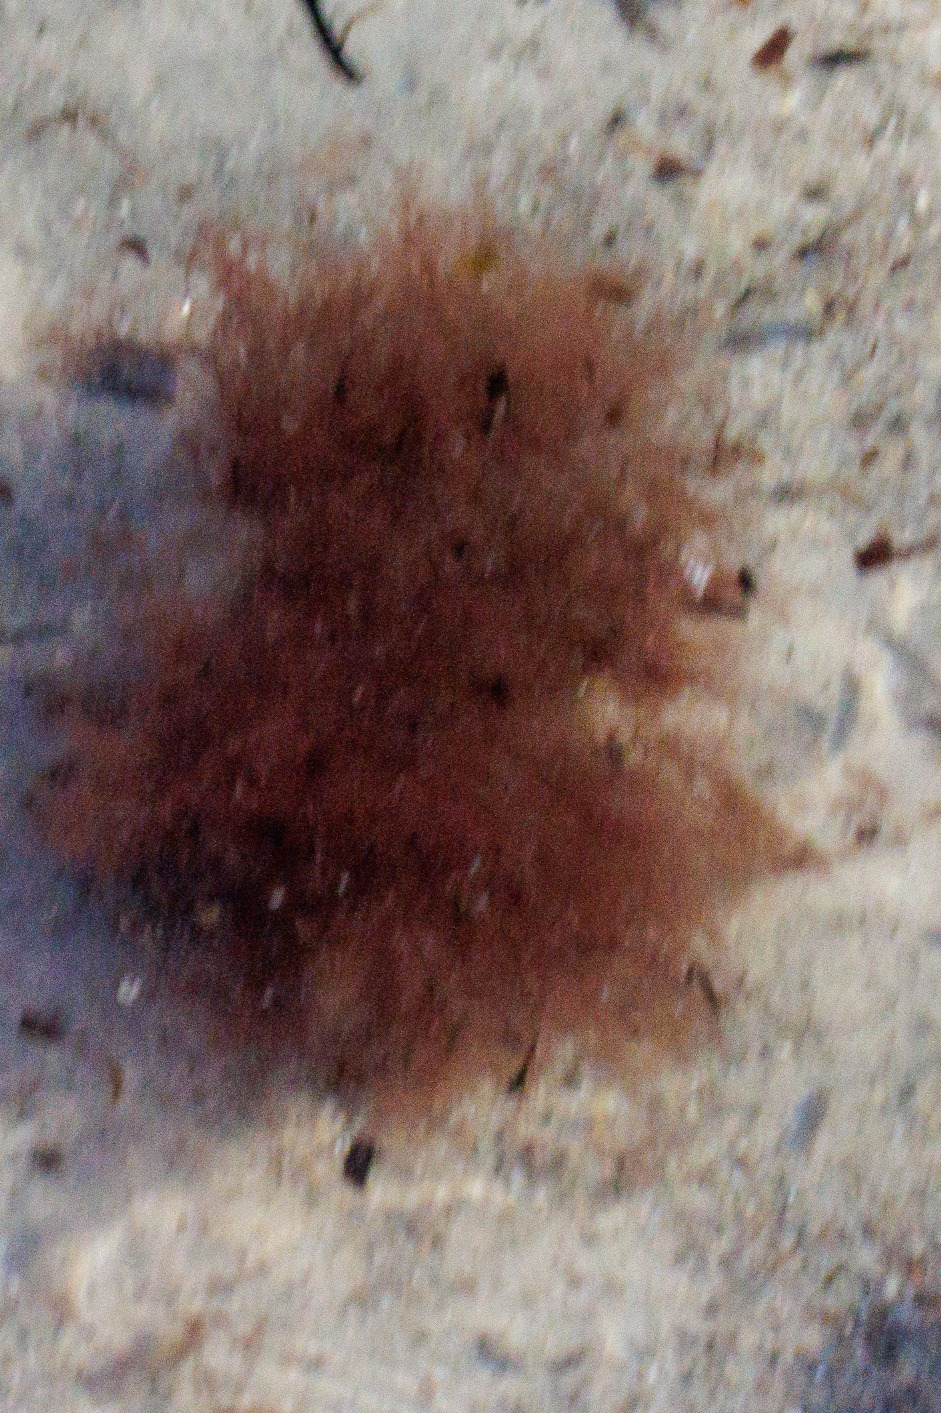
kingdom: Plantae
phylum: Rhodophyta
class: Florideophyceae
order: Ceramiales
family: Ceramiaceae
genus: Ceramium
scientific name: Ceramium
